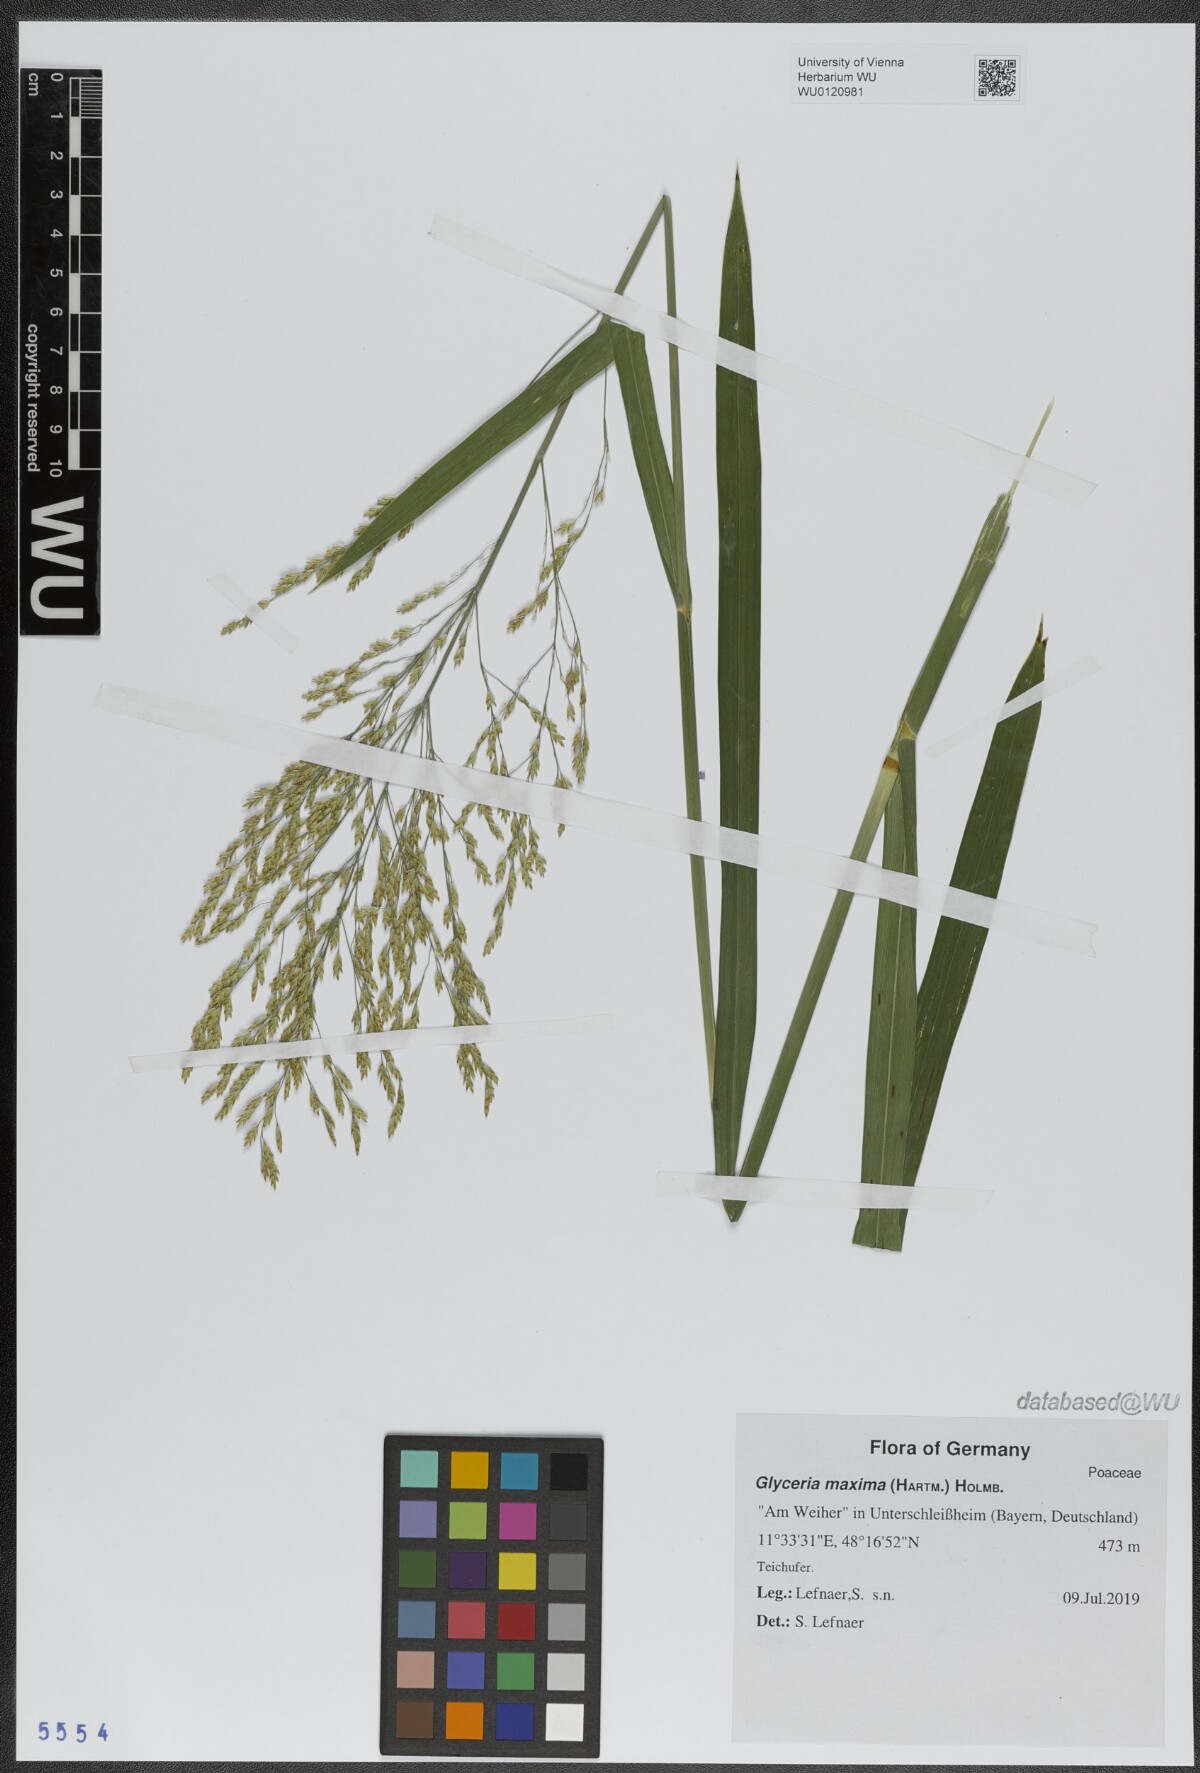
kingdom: Plantae
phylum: Tracheophyta
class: Liliopsida
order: Poales
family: Poaceae
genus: Glyceria
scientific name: Glyceria maxima
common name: Reed mannagrass
